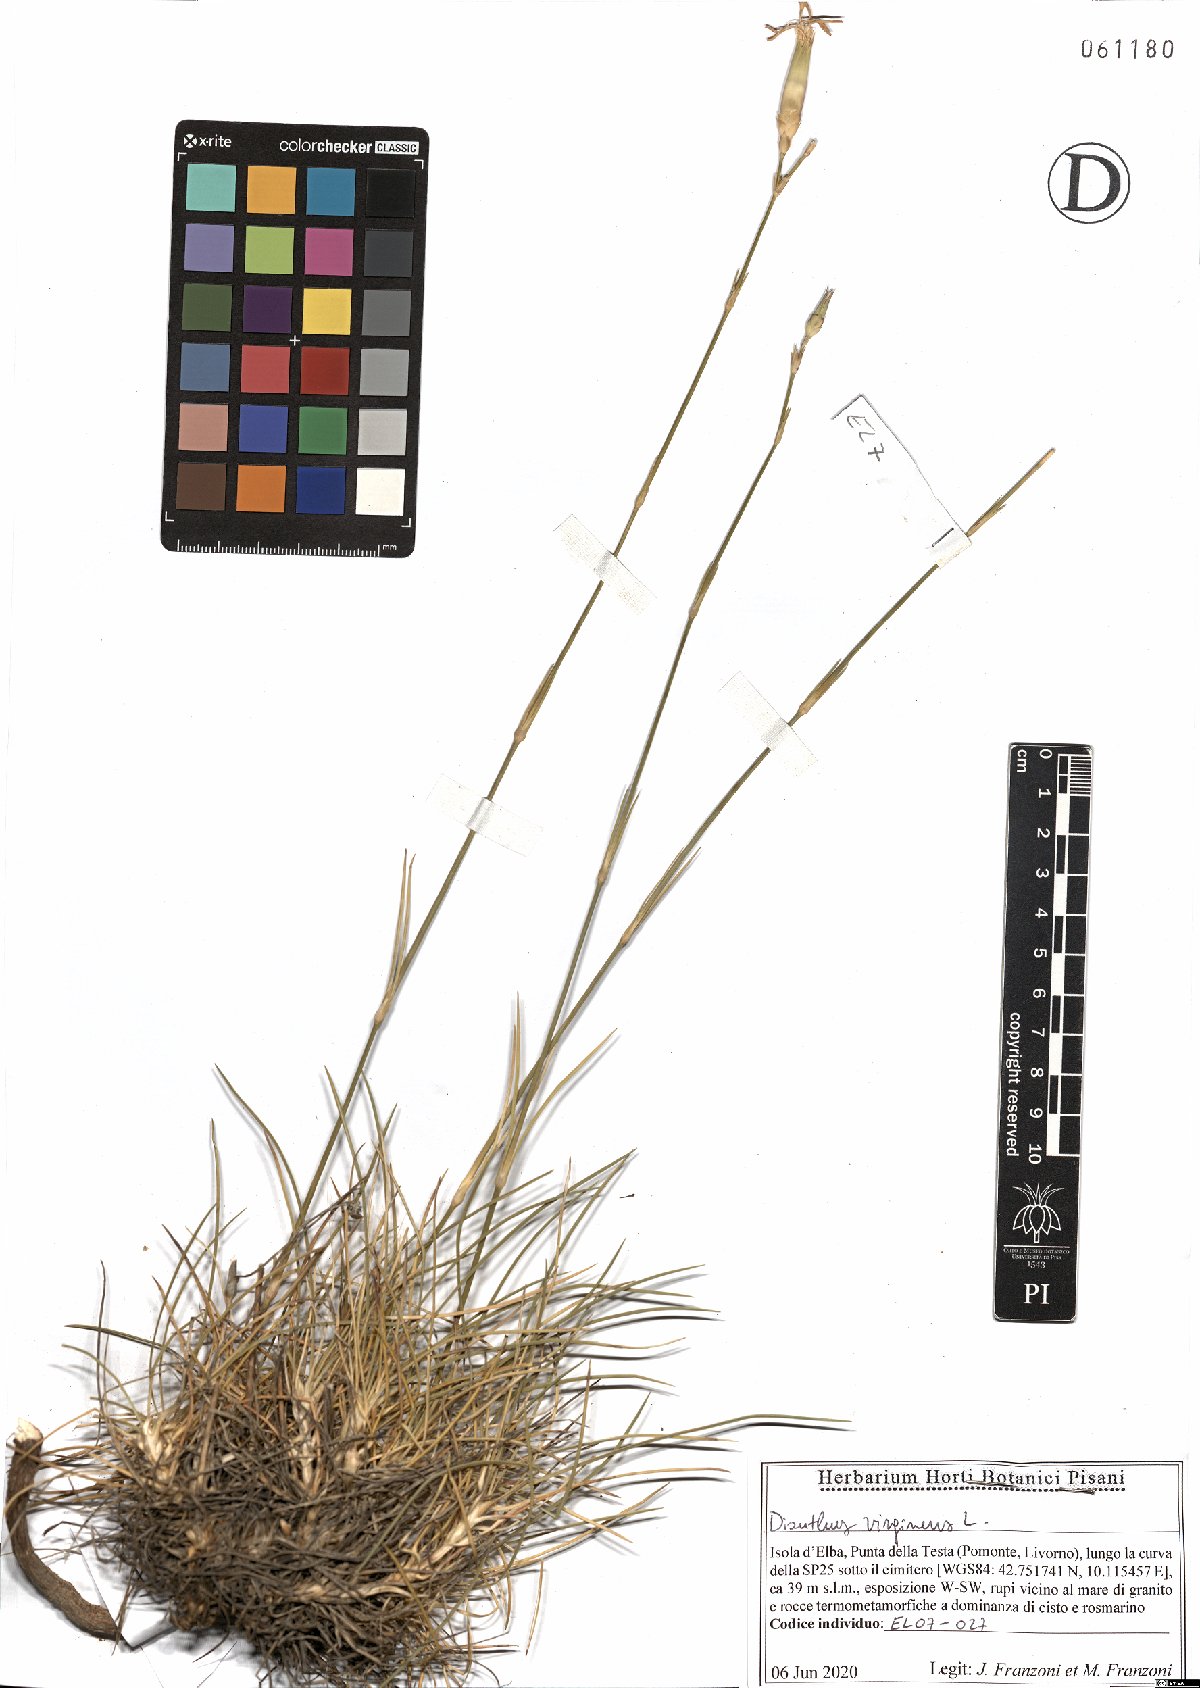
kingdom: Plantae
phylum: Tracheophyta
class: Magnoliopsida
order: Caryophyllales
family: Caryophyllaceae
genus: Dianthus
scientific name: Dianthus virgineus
